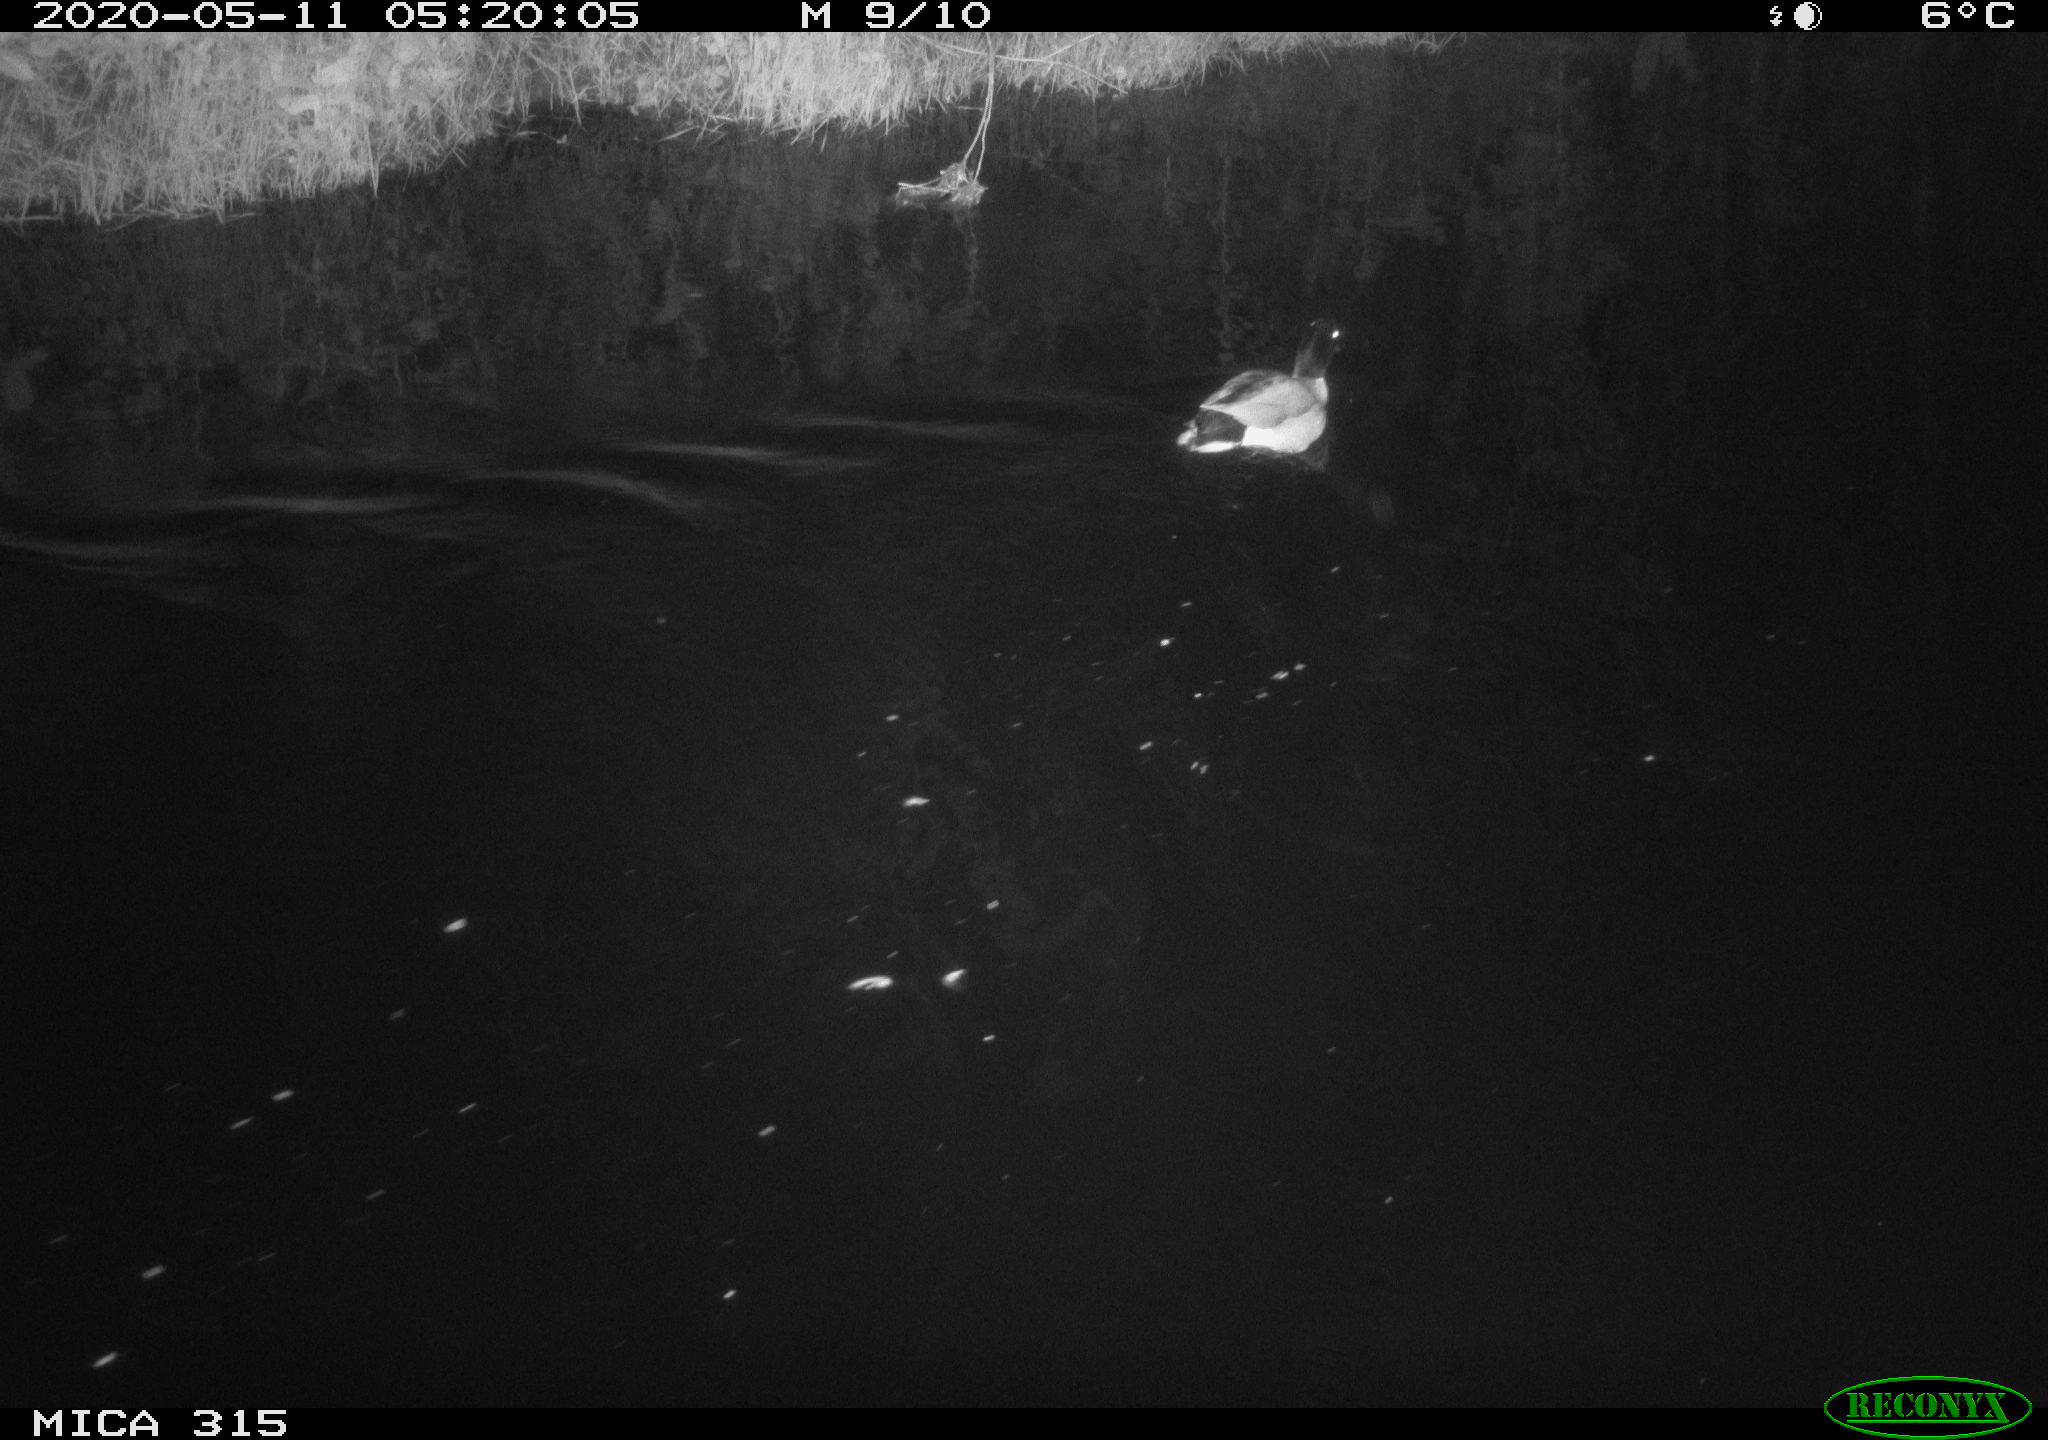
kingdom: Animalia
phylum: Chordata
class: Aves
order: Anseriformes
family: Anatidae
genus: Anas
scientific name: Anas platyrhynchos
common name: Mallard
